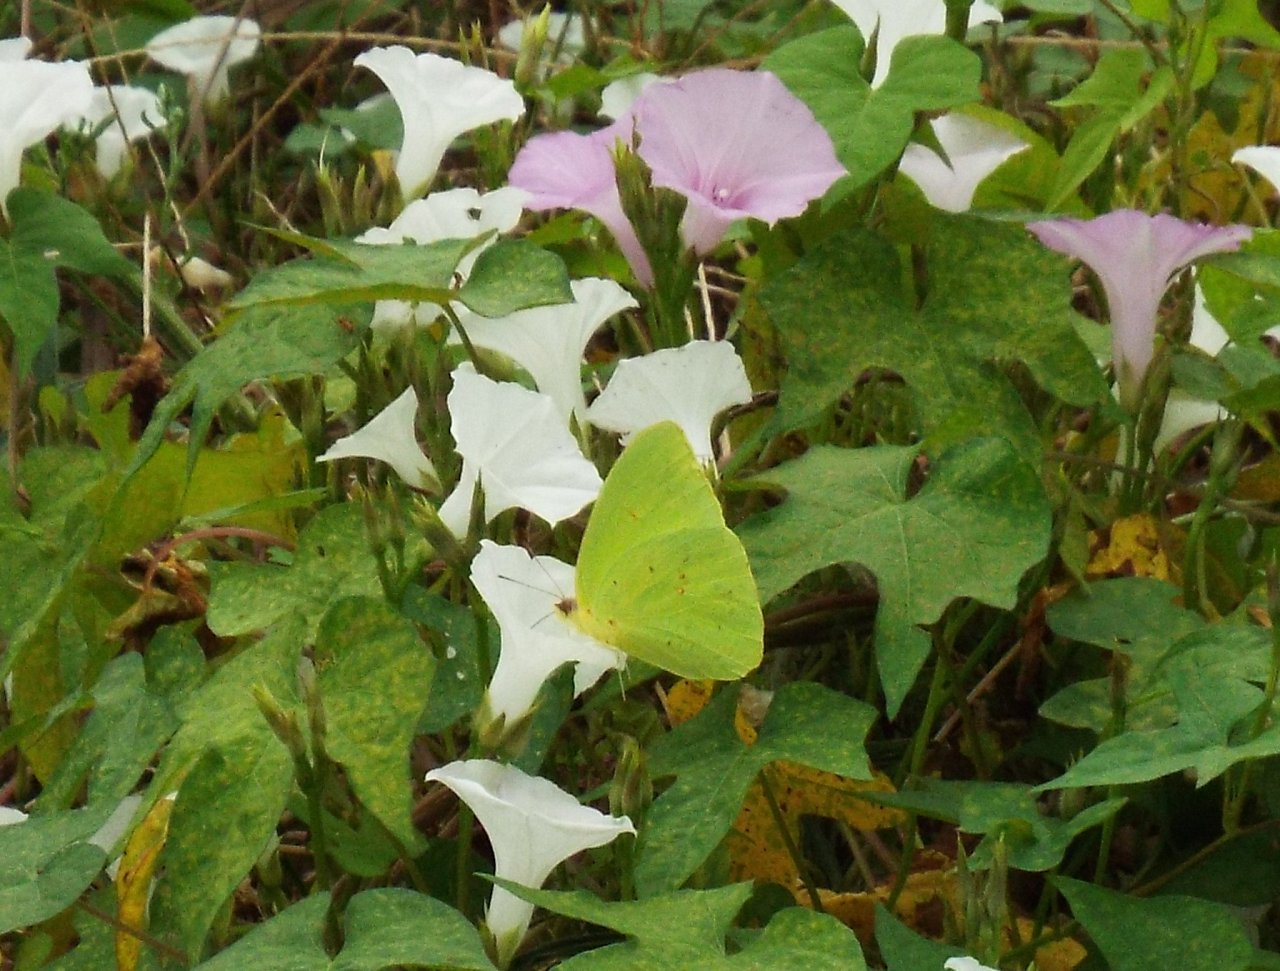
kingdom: Animalia
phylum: Arthropoda
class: Insecta
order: Lepidoptera
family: Pieridae
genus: Phoebis
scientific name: Phoebis sennae
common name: Cloudless Sulphur
